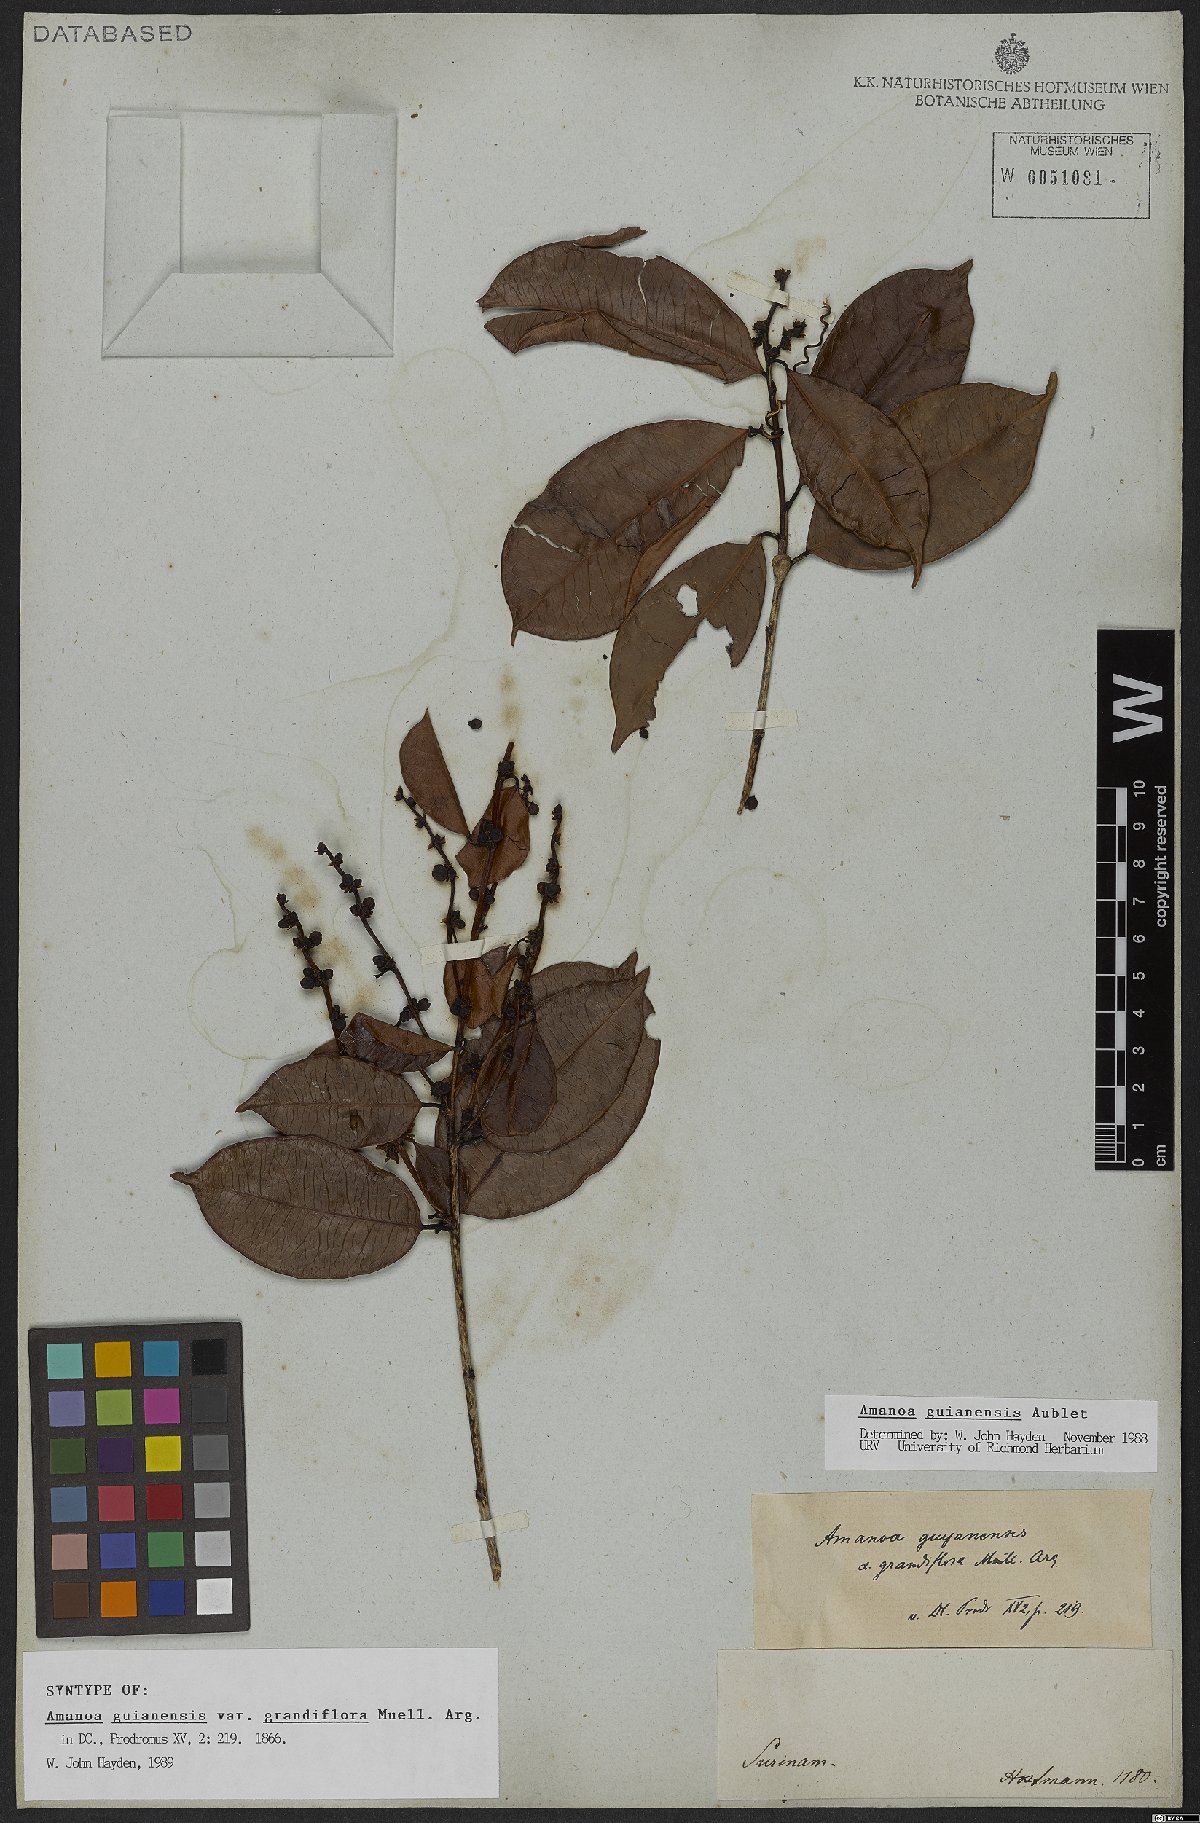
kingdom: Plantae
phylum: Tracheophyta
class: Magnoliopsida
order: Malpighiales
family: Phyllanthaceae
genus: Amanoa
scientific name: Amanoa guianensis
